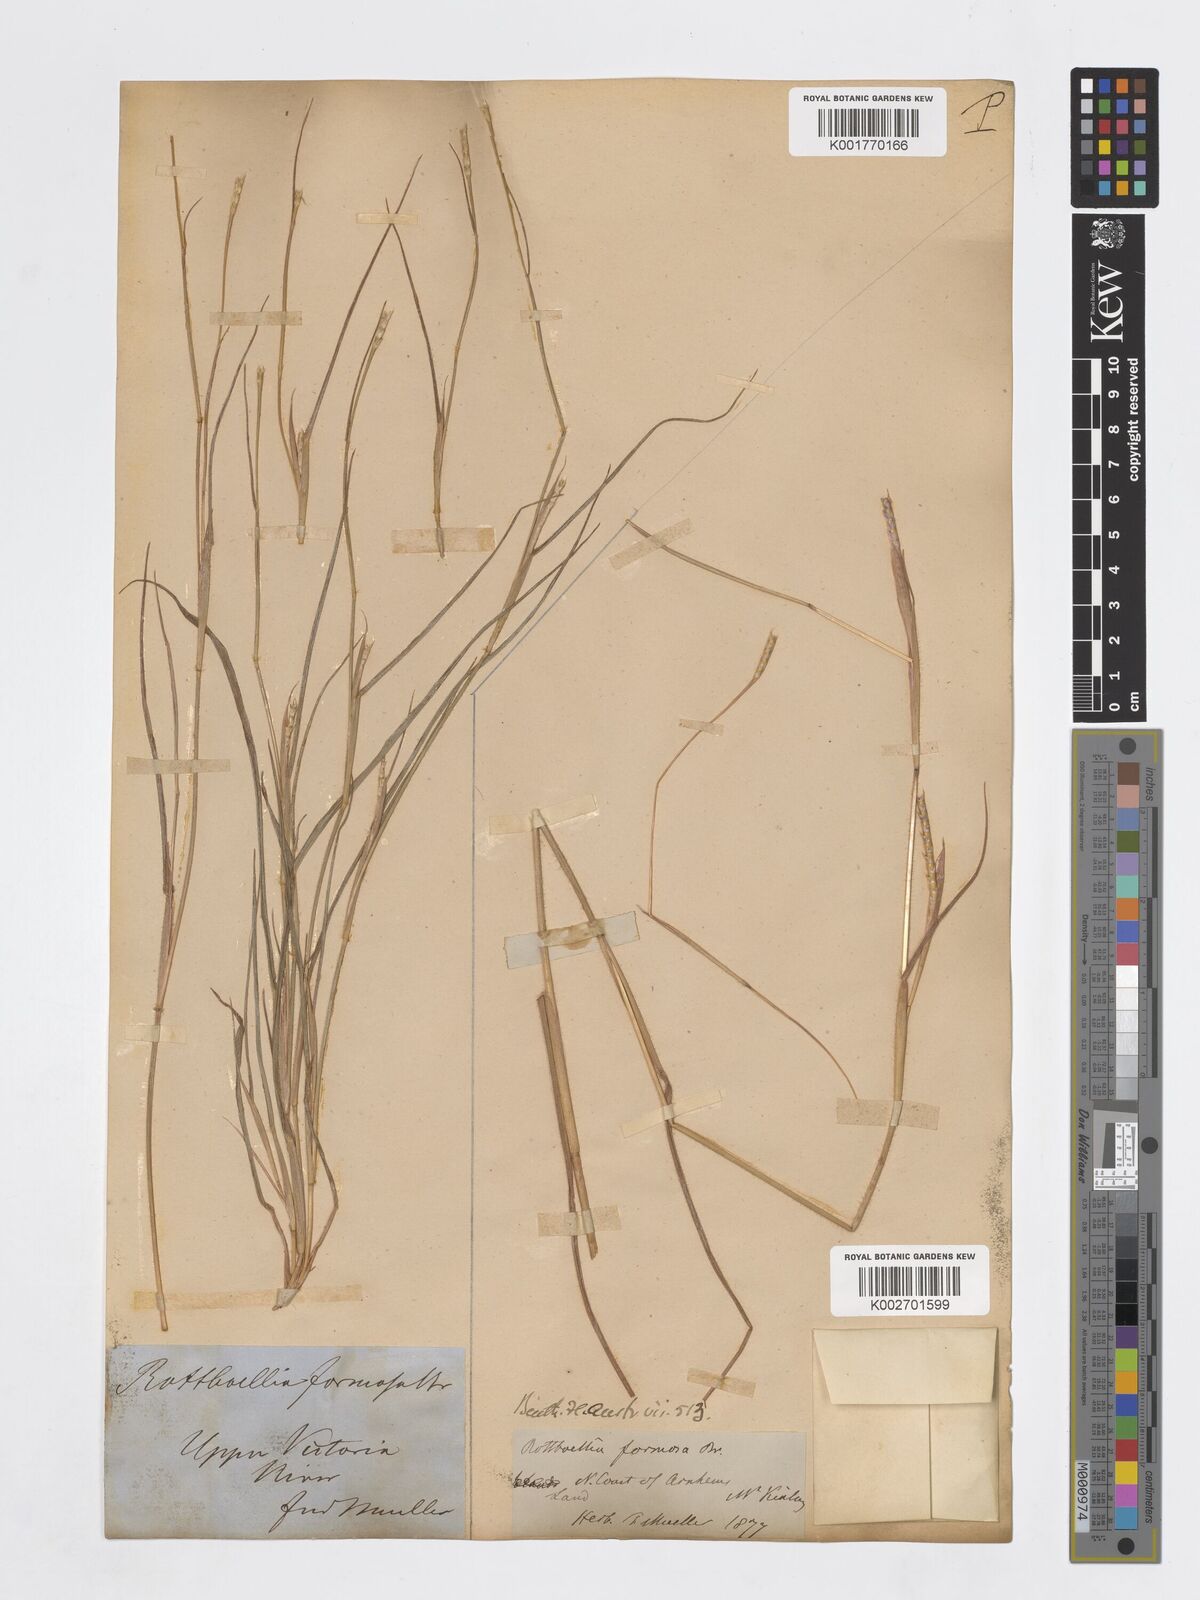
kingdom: Plantae
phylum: Tracheophyta
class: Liliopsida
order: Poales
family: Poaceae
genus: Mnesithea
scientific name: Mnesithea formosa
